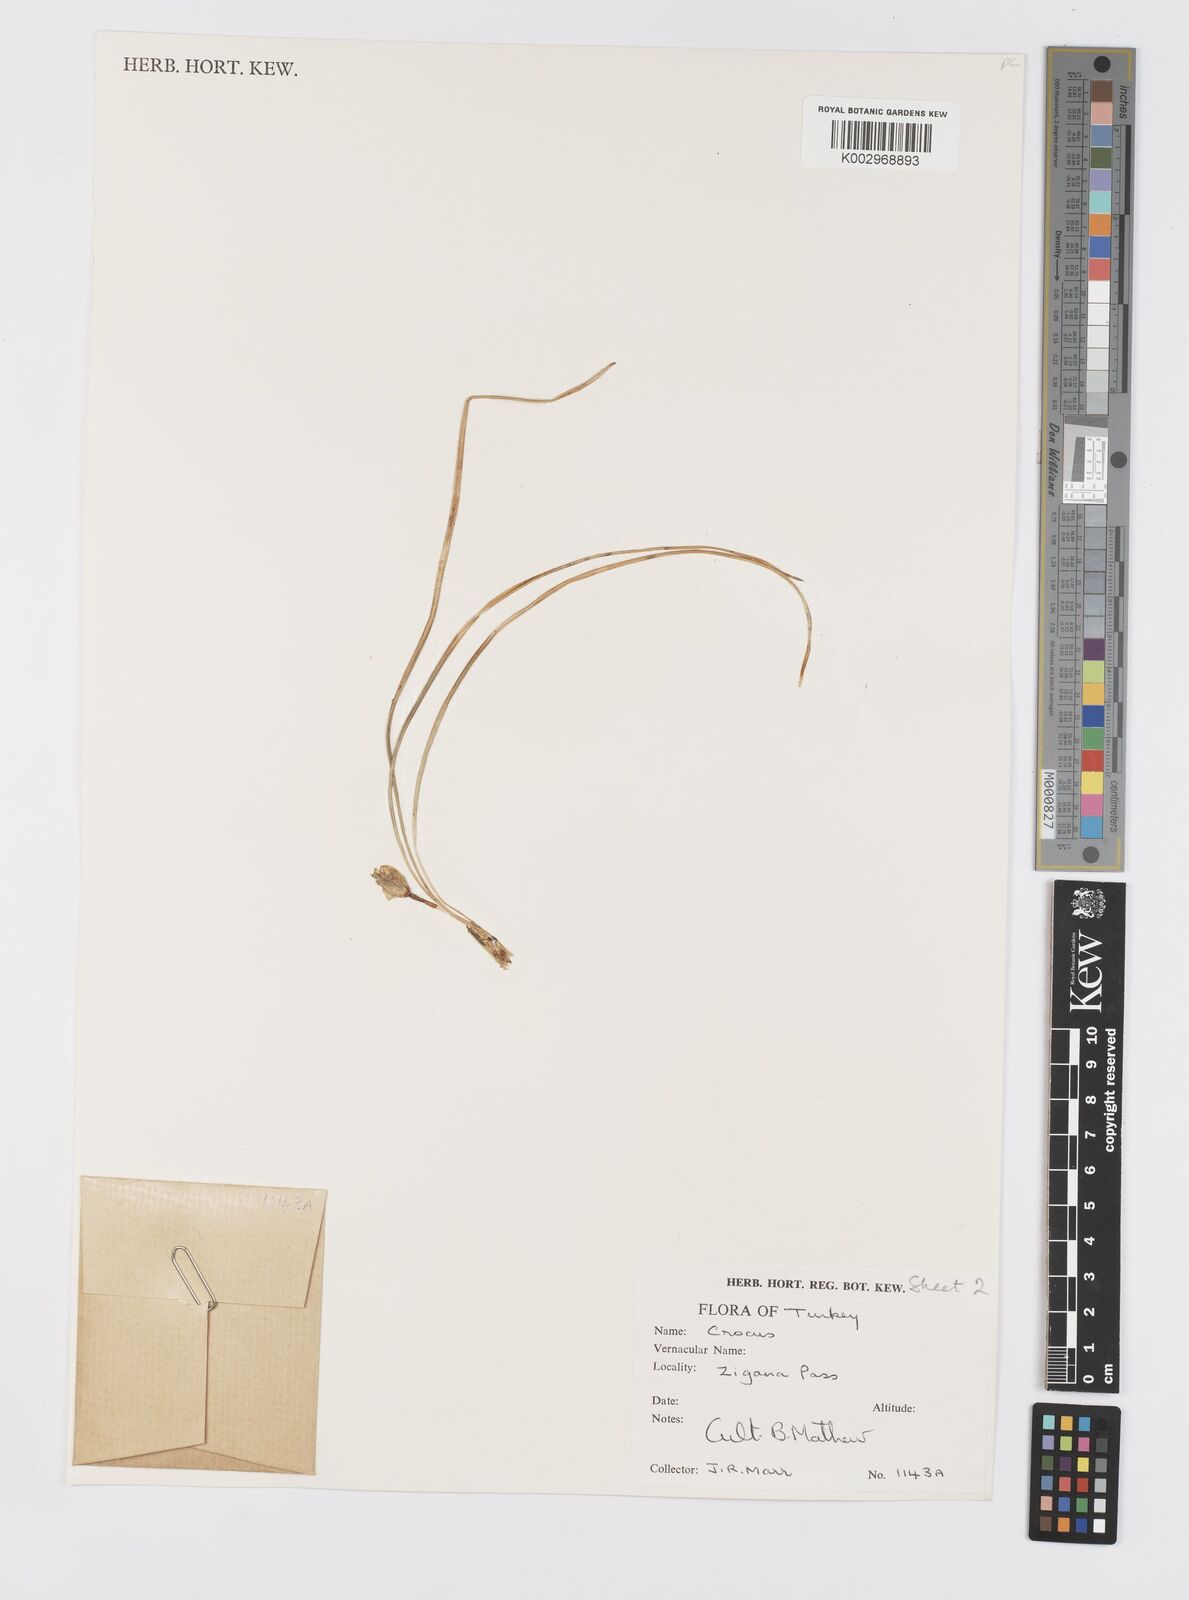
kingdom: Plantae
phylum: Tracheophyta
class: Liliopsida
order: Asparagales
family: Iridaceae
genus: Crocus
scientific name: Crocus aerius
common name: Aerial crocus
